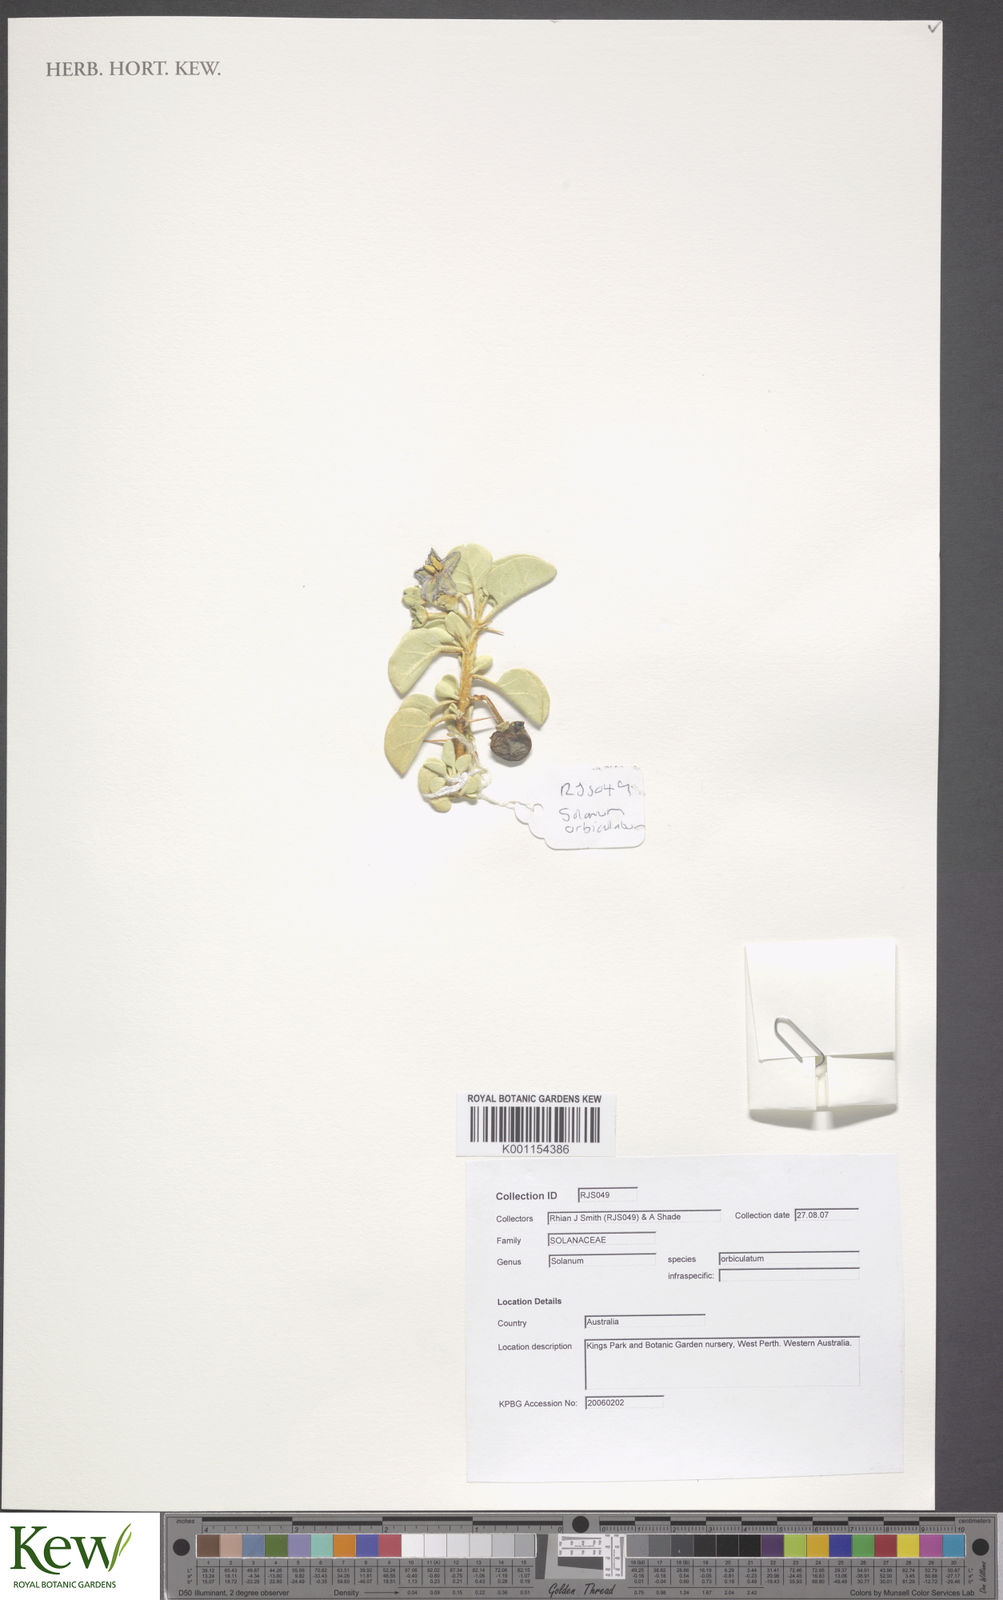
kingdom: Plantae
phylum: Tracheophyta
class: Magnoliopsida
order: Solanales
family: Solanaceae
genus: Solanum
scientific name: Solanum orbiculatum
